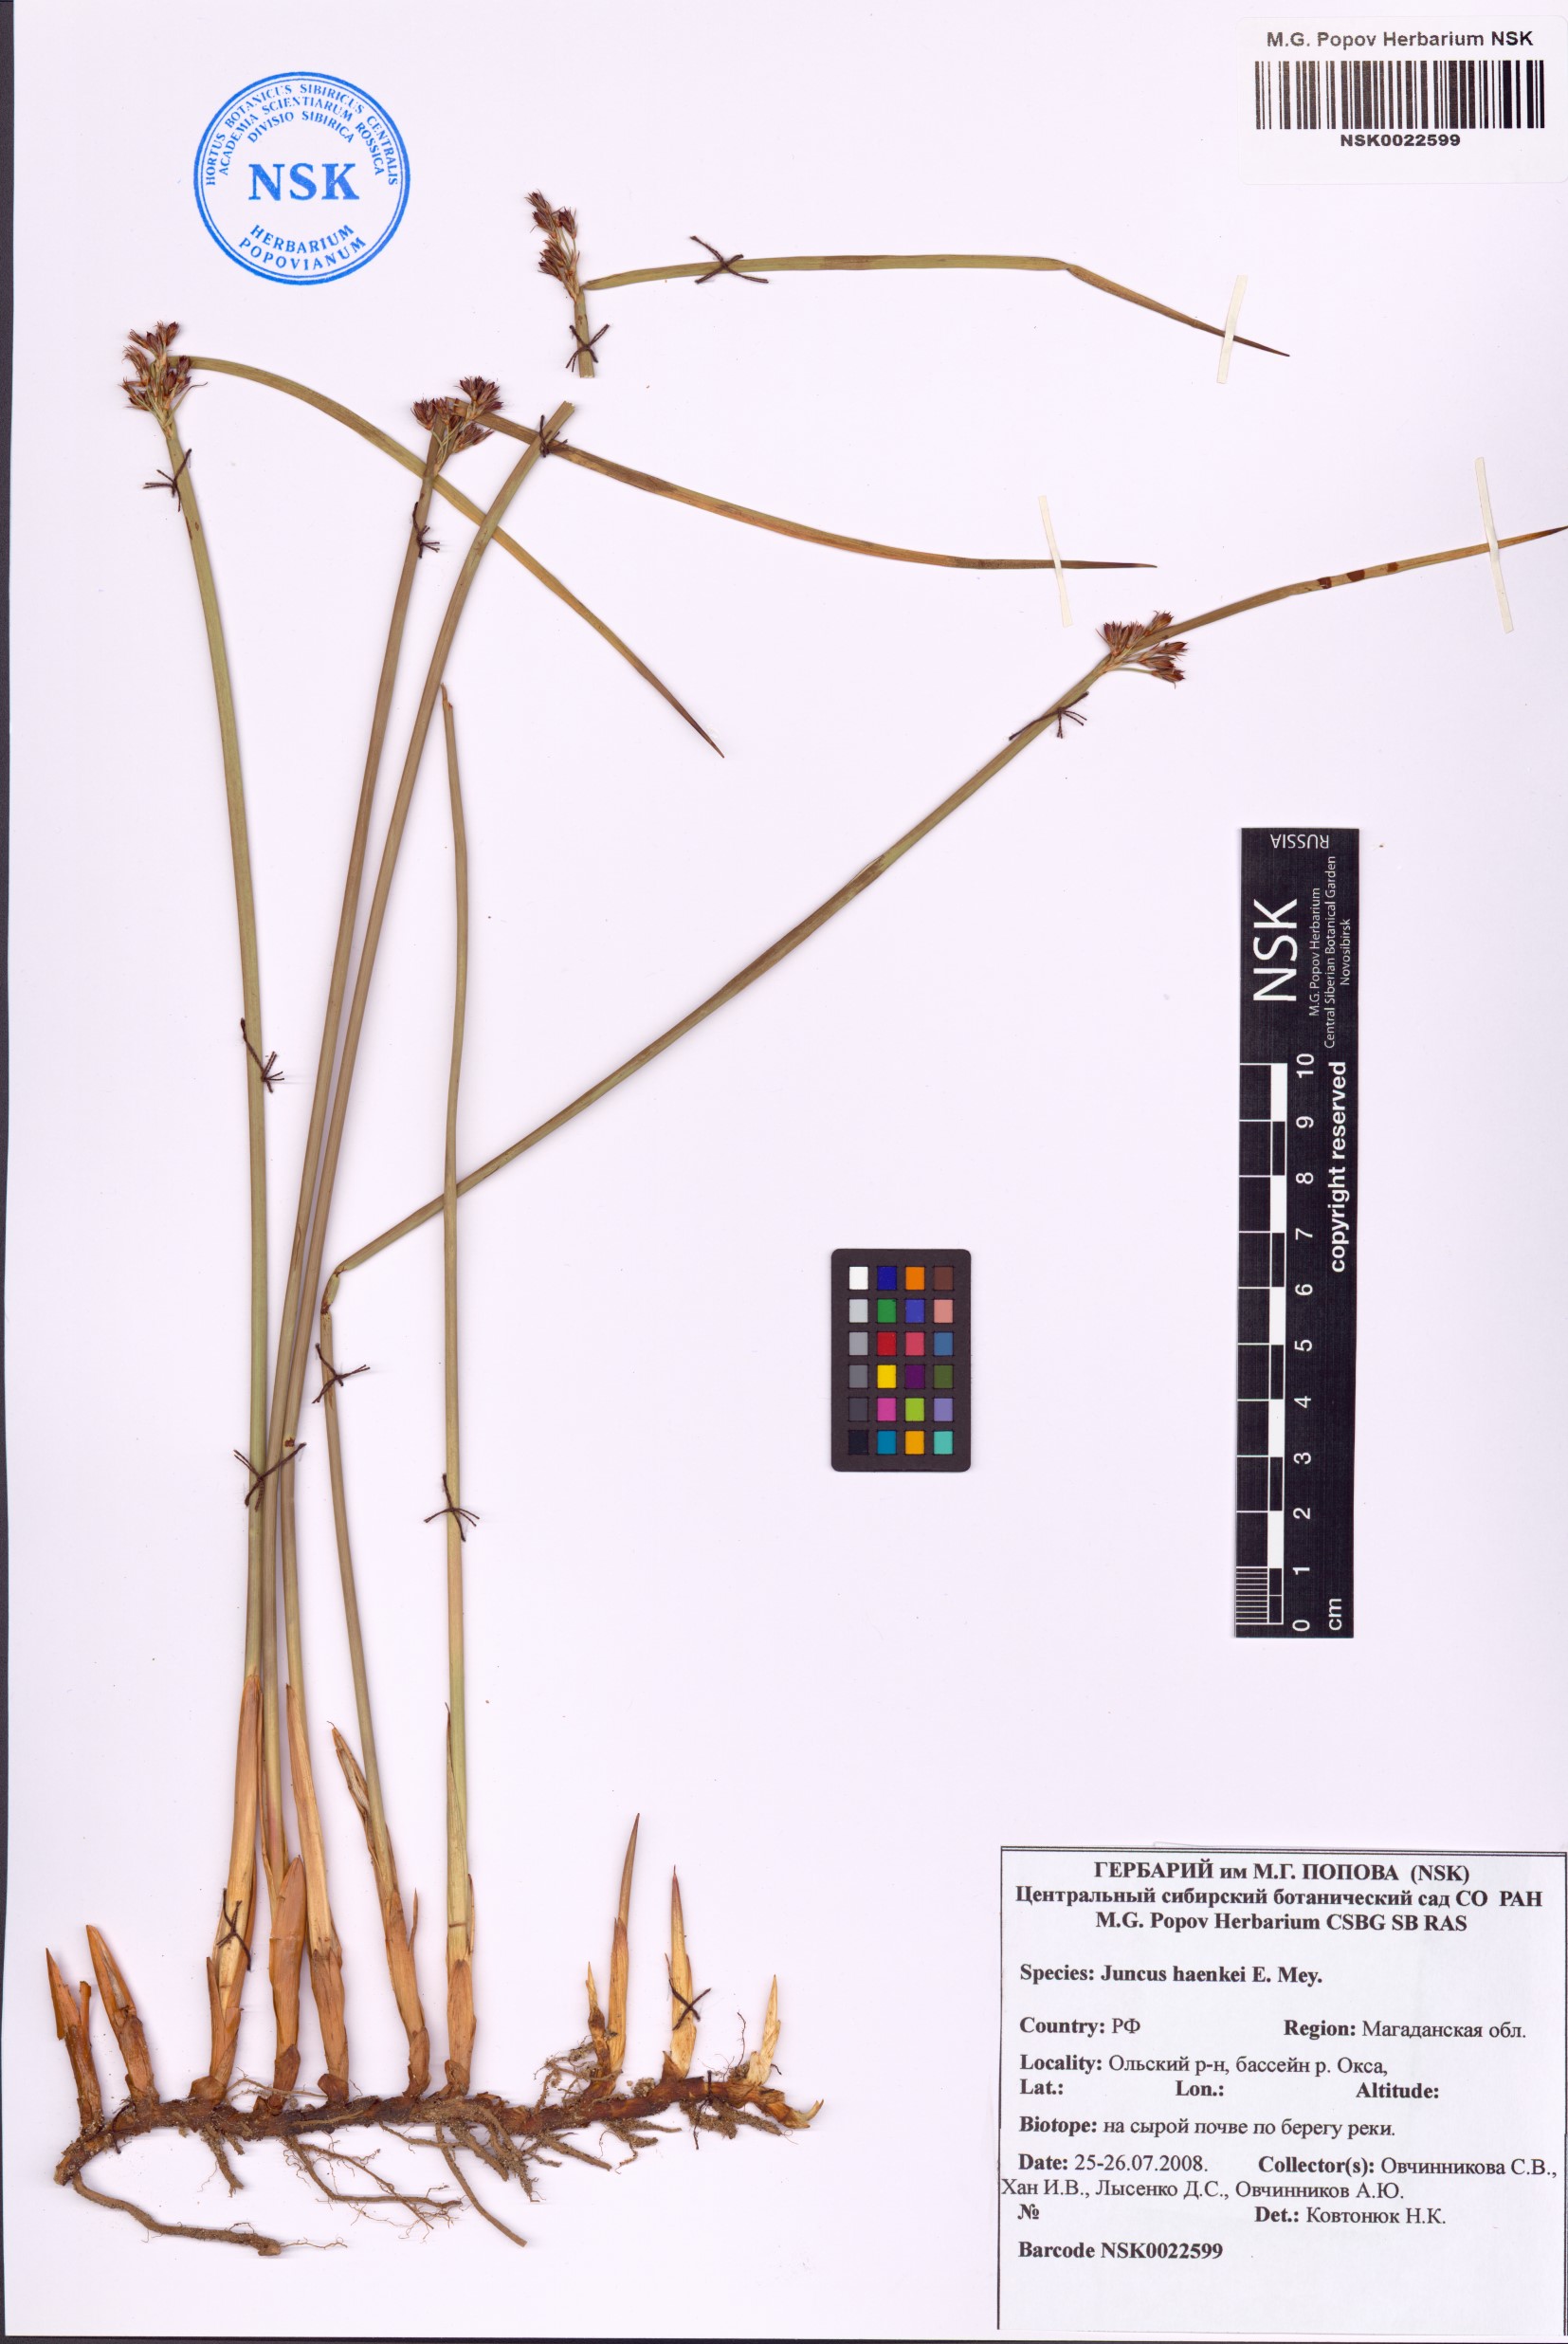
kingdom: Plantae
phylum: Tracheophyta
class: Liliopsida
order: Poales
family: Juncaceae
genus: Juncus
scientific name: Juncus haenkei
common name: Haenke's rush
